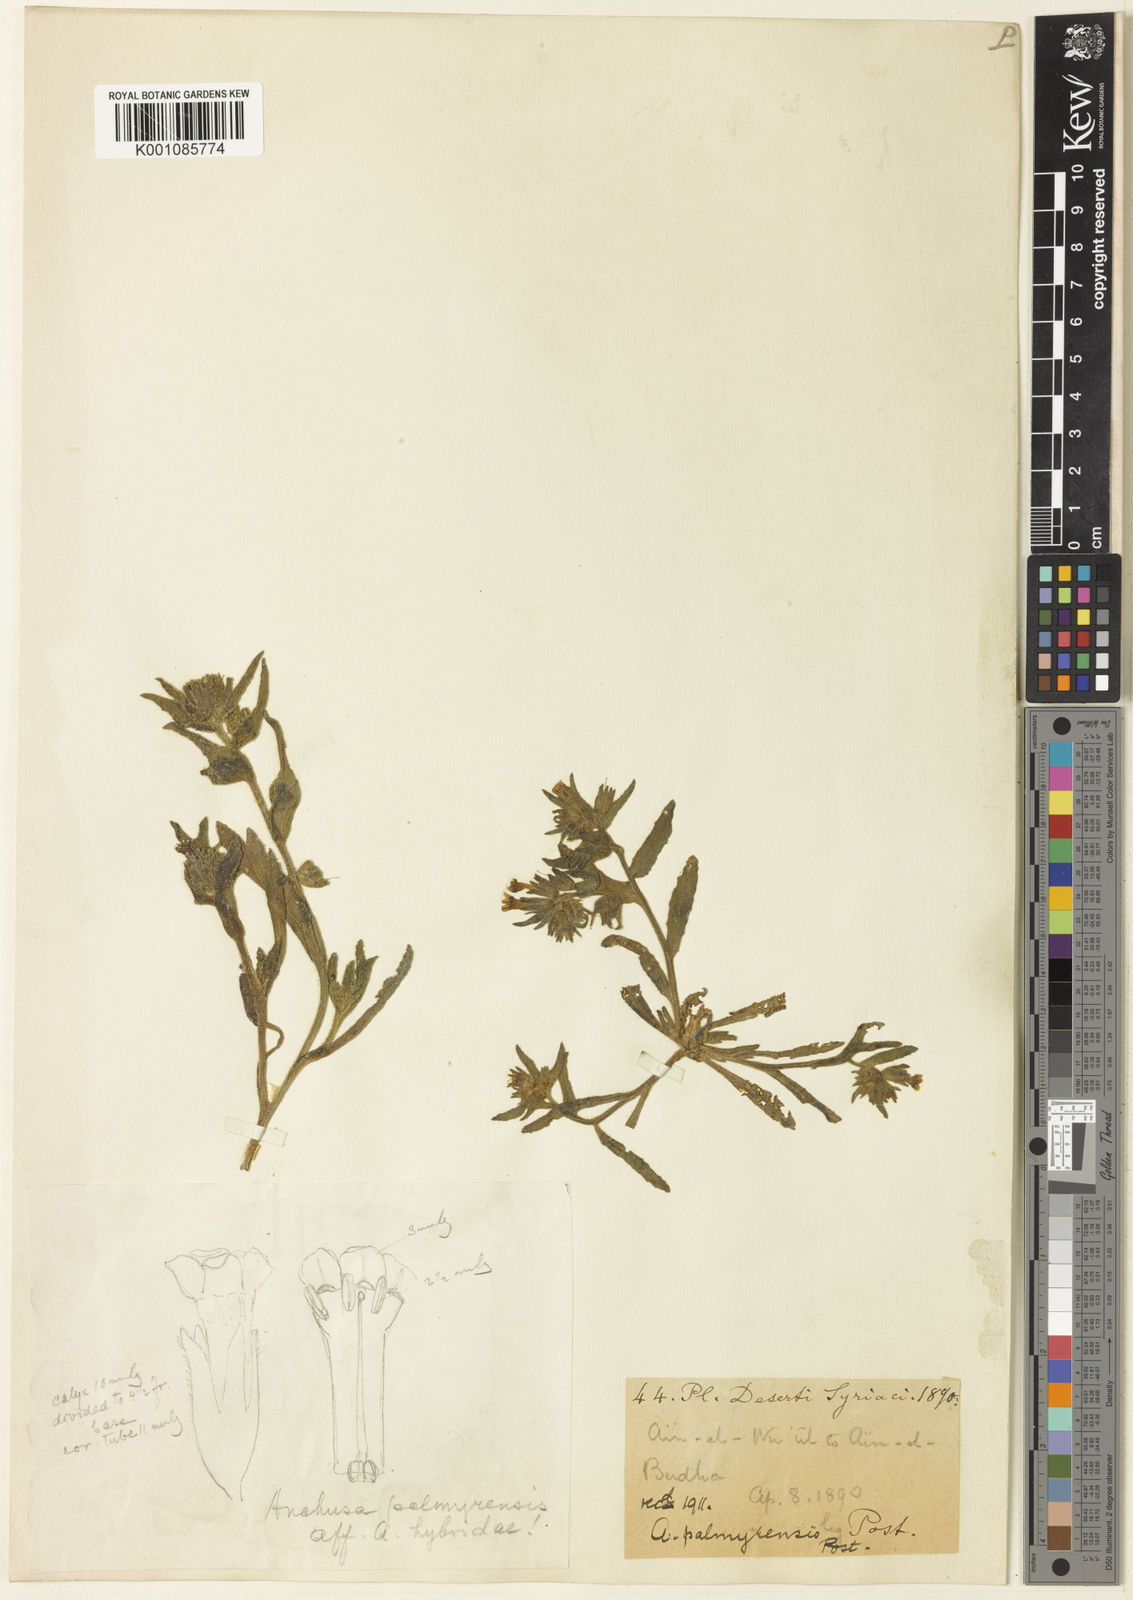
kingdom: Plantae
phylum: Tracheophyta
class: Magnoliopsida
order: Boraginales
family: Boraginaceae
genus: Nonea
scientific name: Nonea palmyrensis
